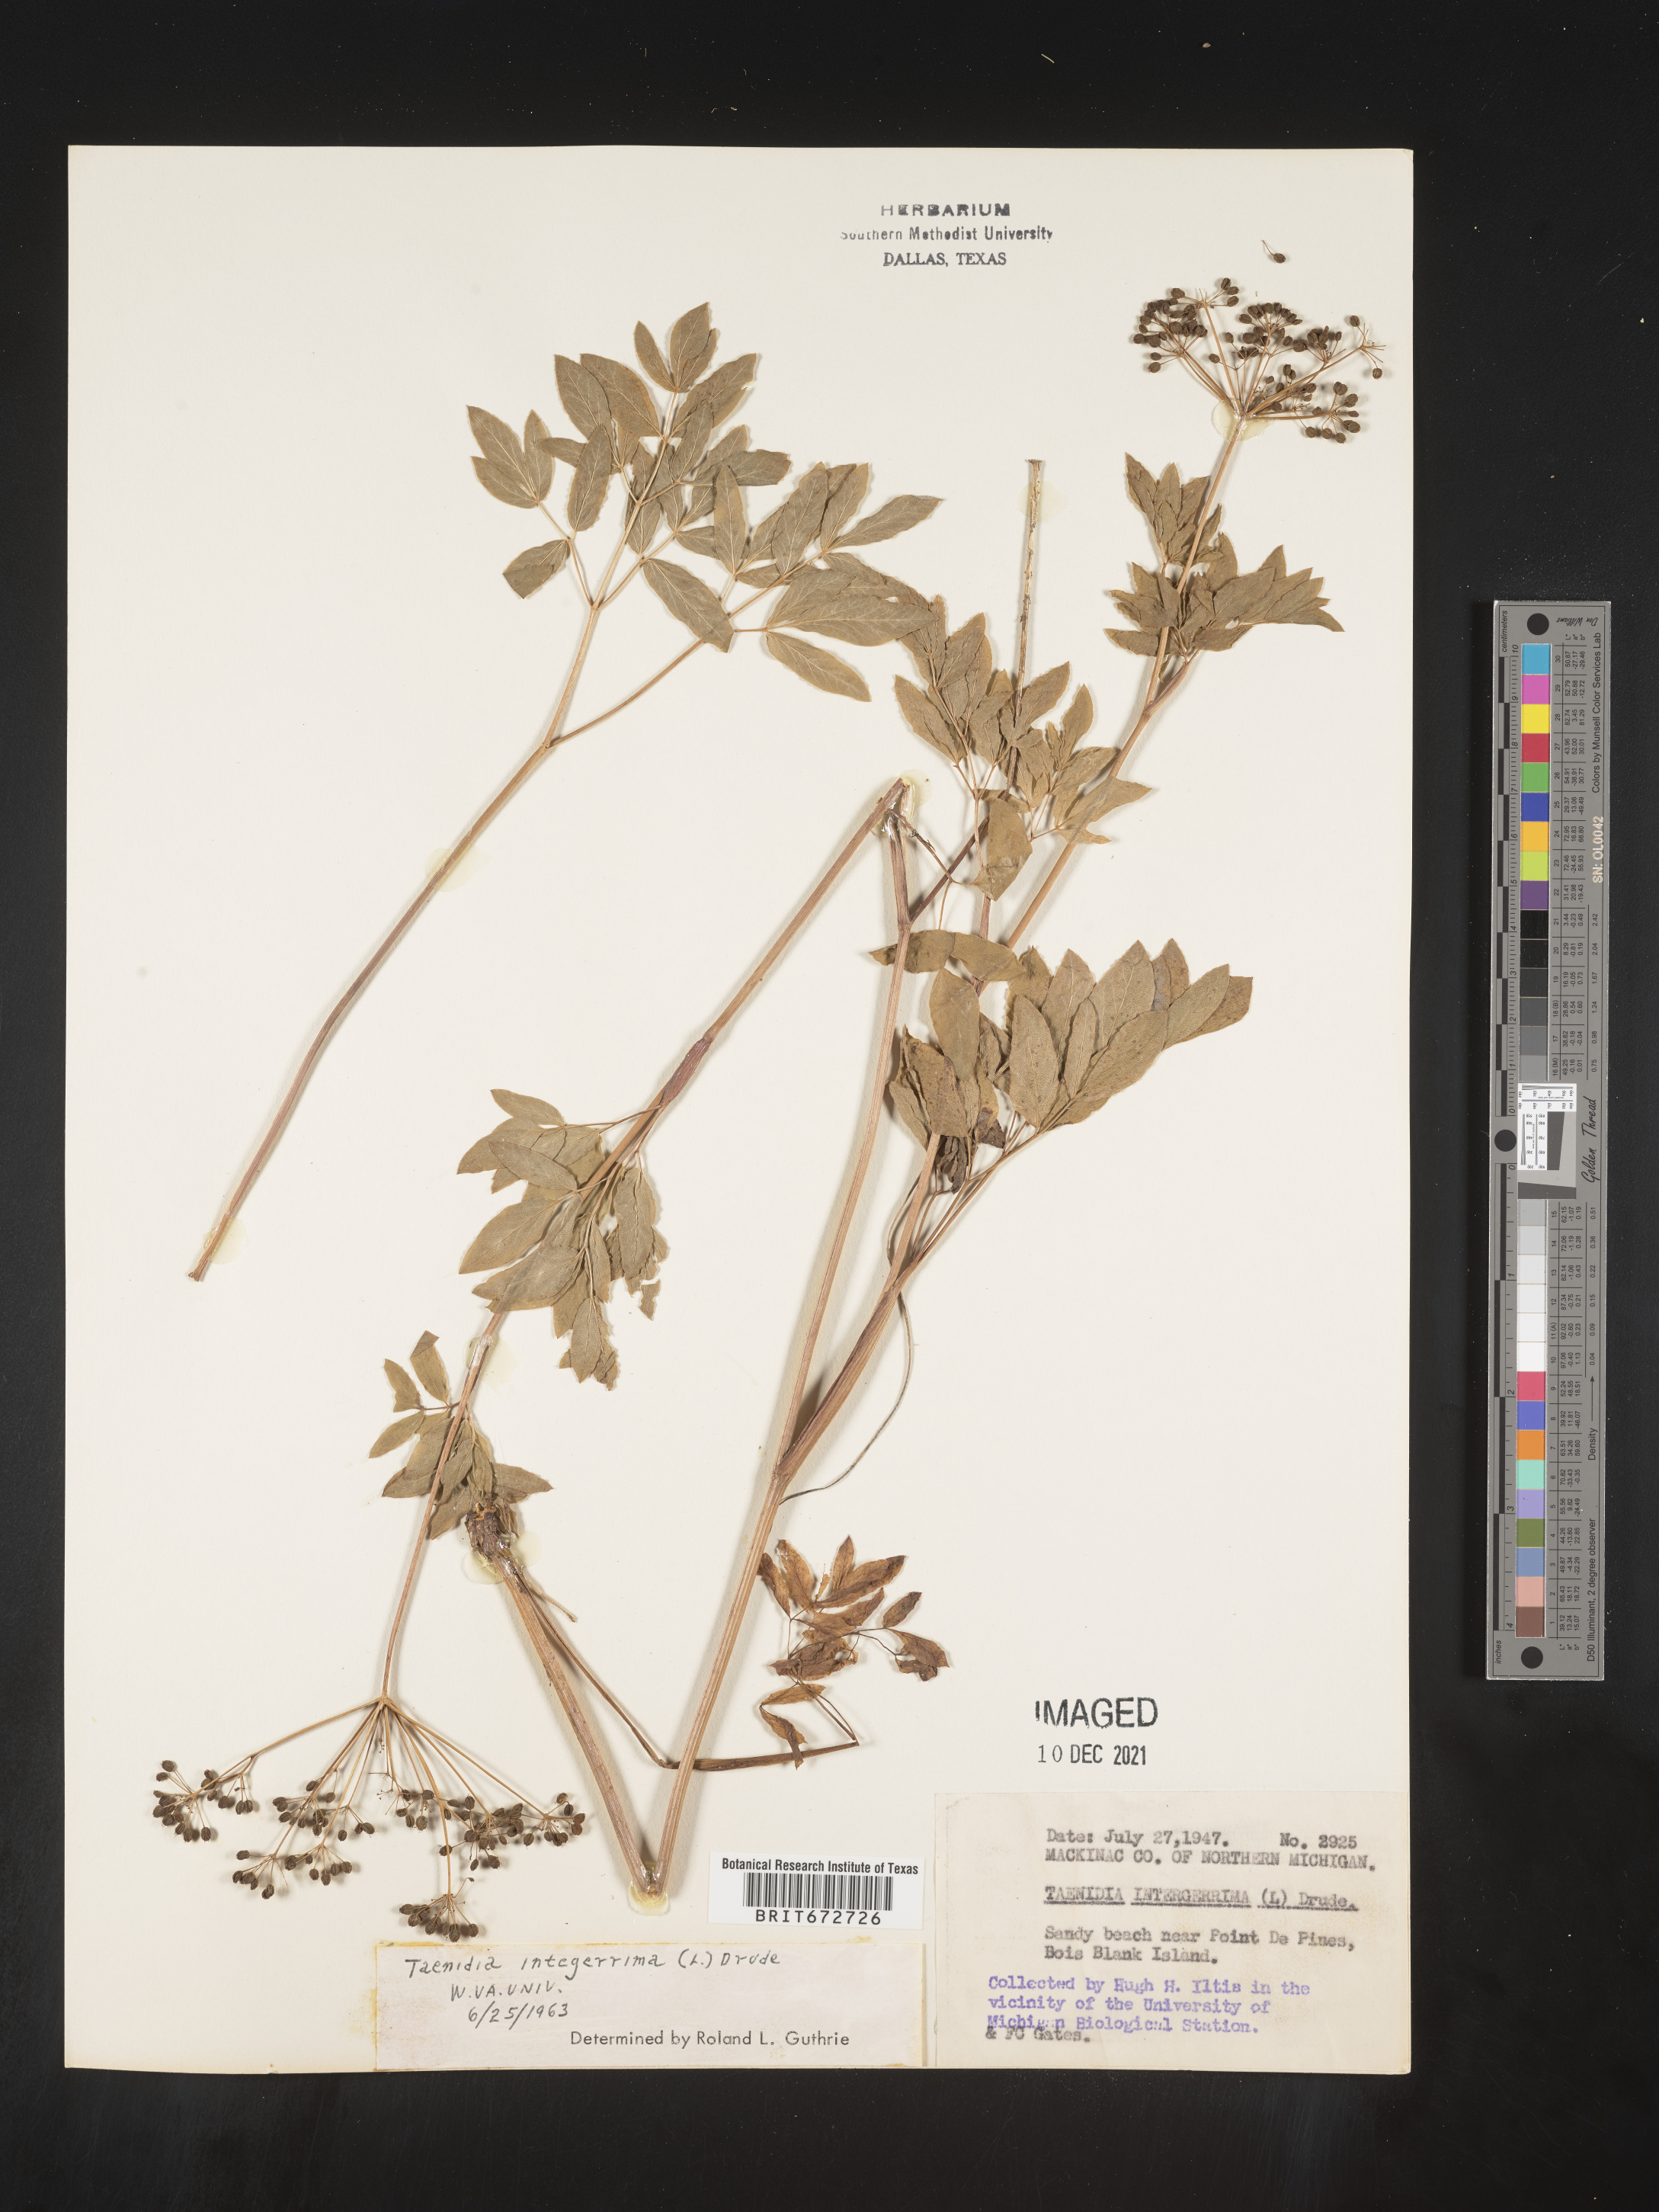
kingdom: Plantae
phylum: Tracheophyta
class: Magnoliopsida
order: Apiales
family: Apiaceae
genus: Taenidia
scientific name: Taenidia
